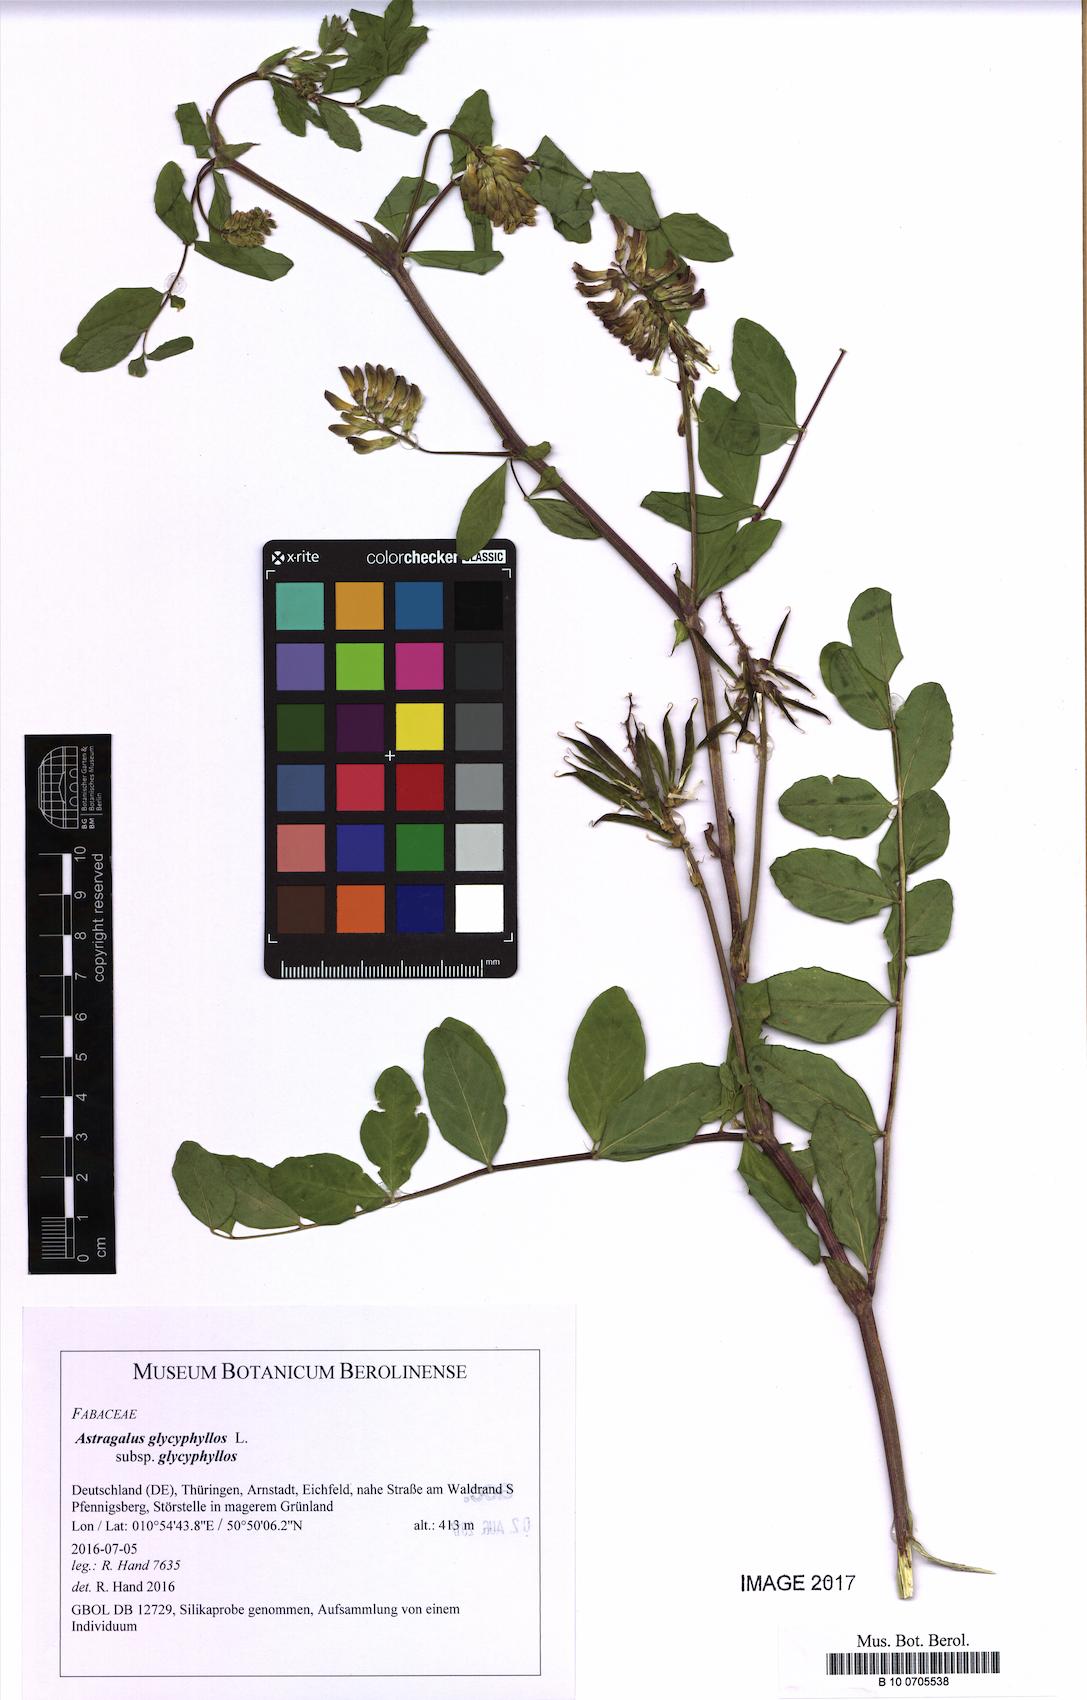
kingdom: Plantae
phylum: Tracheophyta
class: Magnoliopsida
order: Fabales
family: Fabaceae
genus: Astragalus
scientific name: Astragalus glycyphyllos
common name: Wild liquorice
